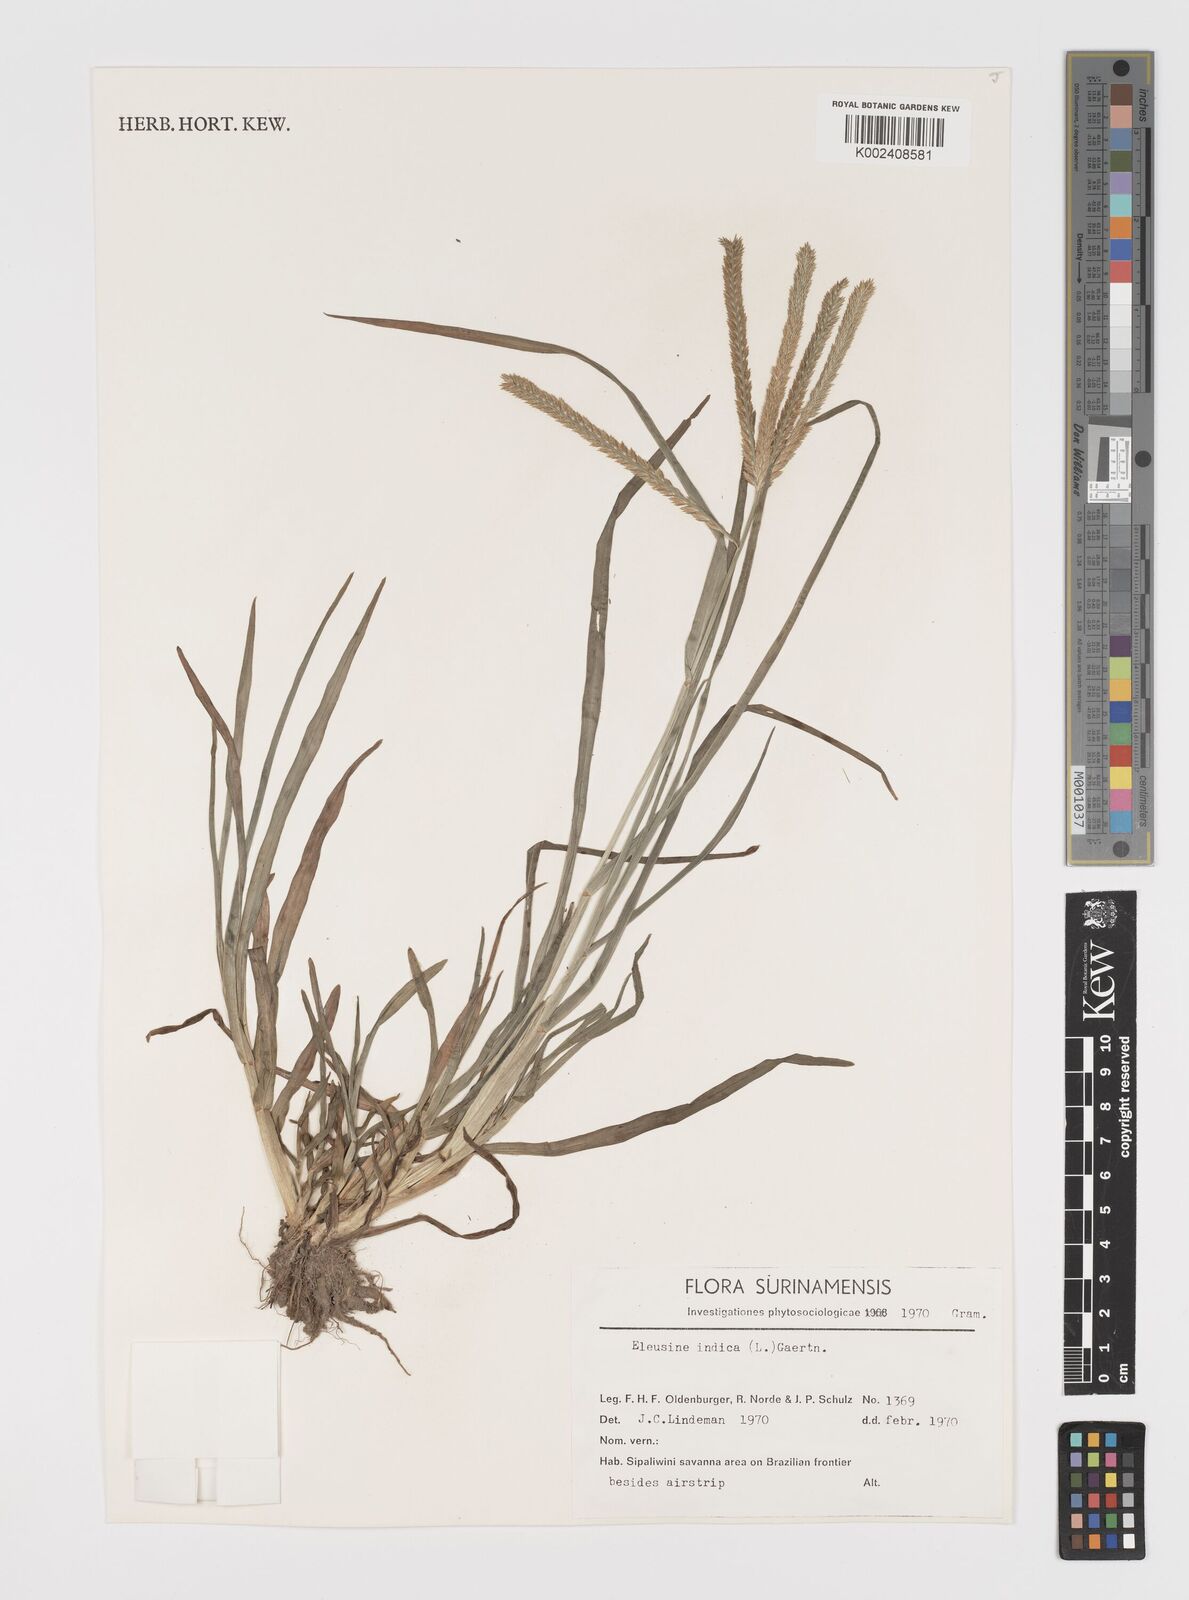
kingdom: Plantae
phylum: Tracheophyta
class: Liliopsida
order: Poales
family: Poaceae
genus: Eleusine
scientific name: Eleusine indica
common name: Yard-grass
